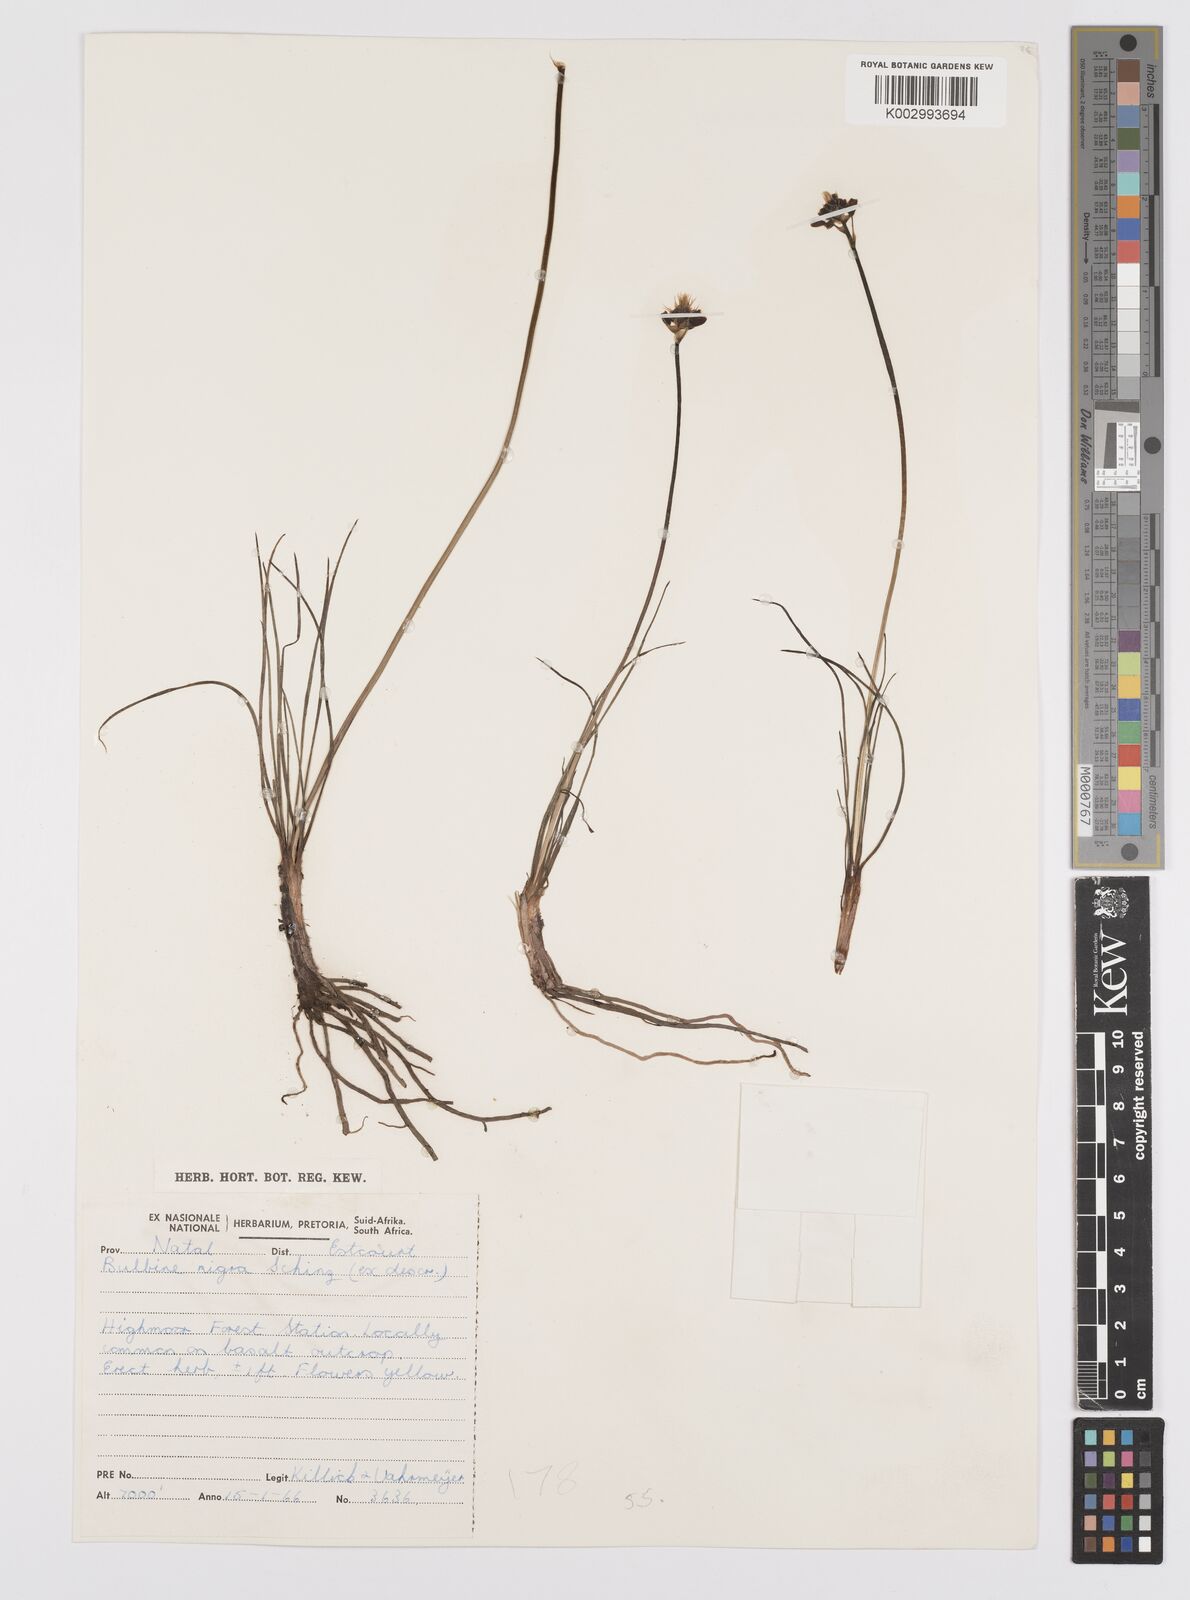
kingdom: Plantae
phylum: Tracheophyta
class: Liliopsida
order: Asparagales
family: Asphodelaceae
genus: Bulbine
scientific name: Bulbine capitata
